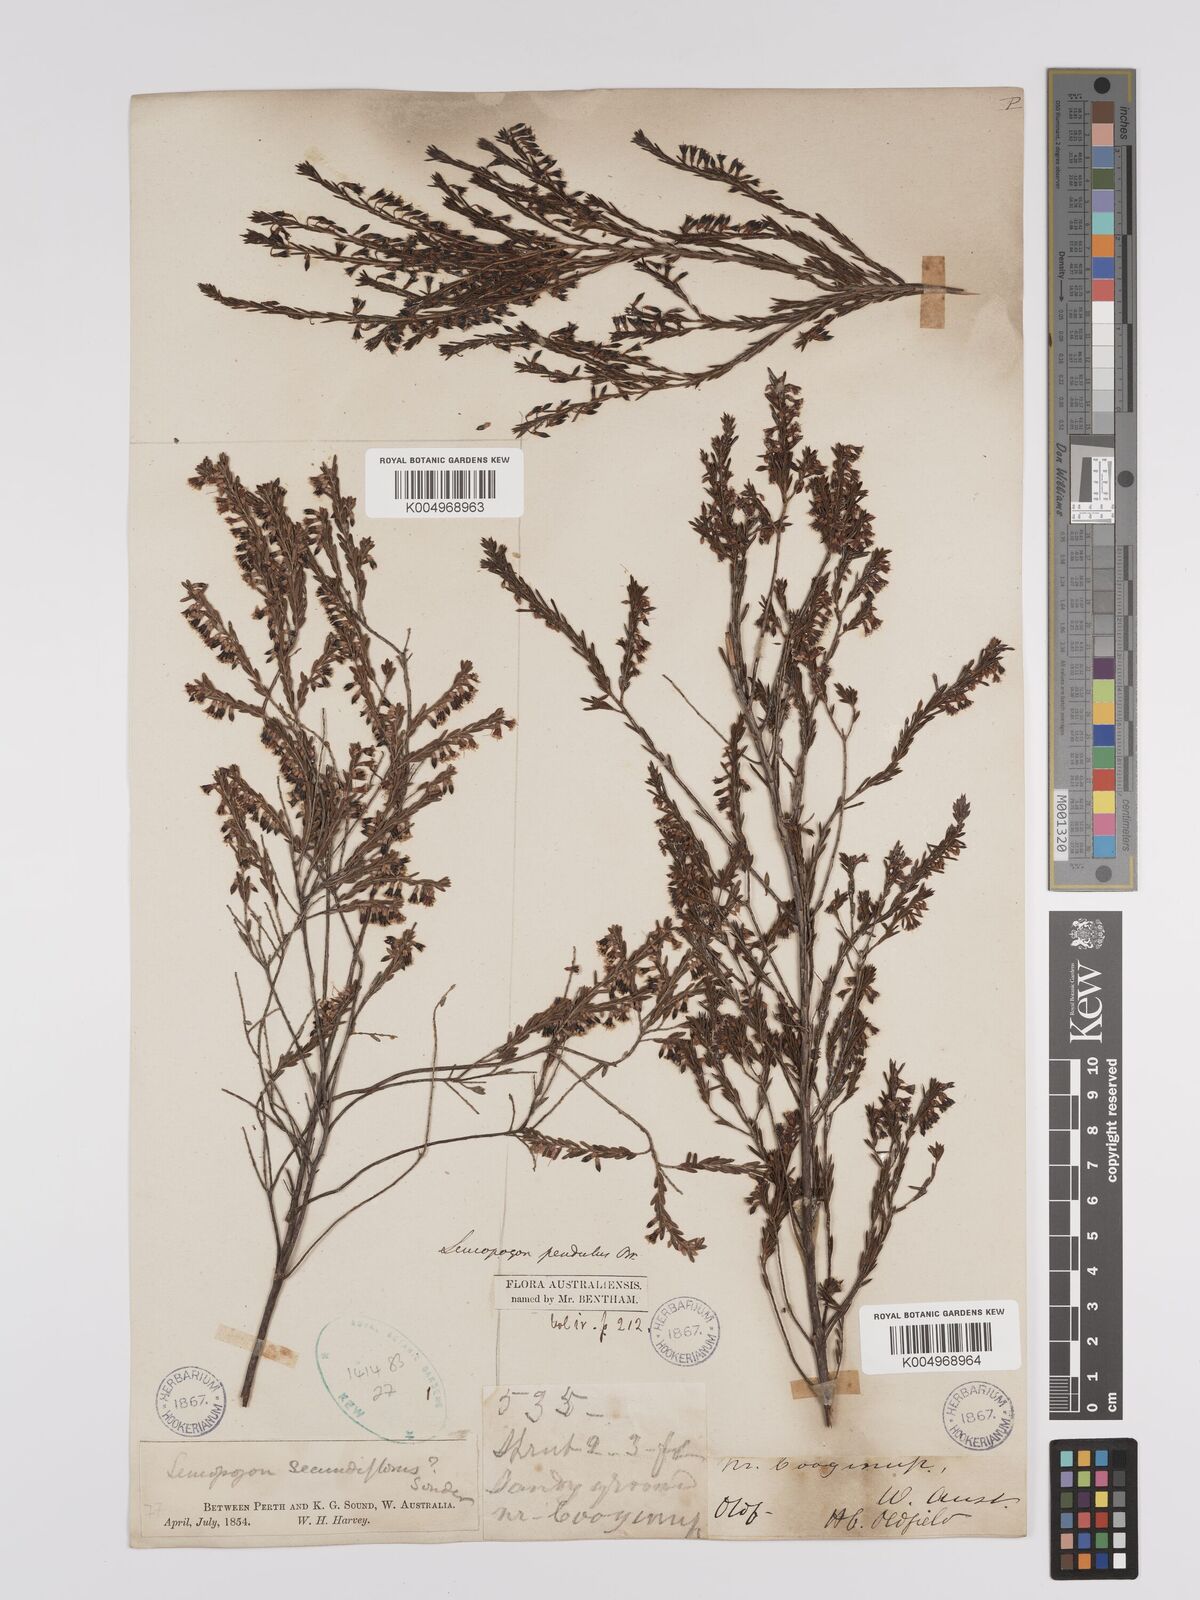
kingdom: Plantae
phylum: Tracheophyta
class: Magnoliopsida
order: Ericales
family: Ericaceae
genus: Styphelia
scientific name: Styphelia pendula
